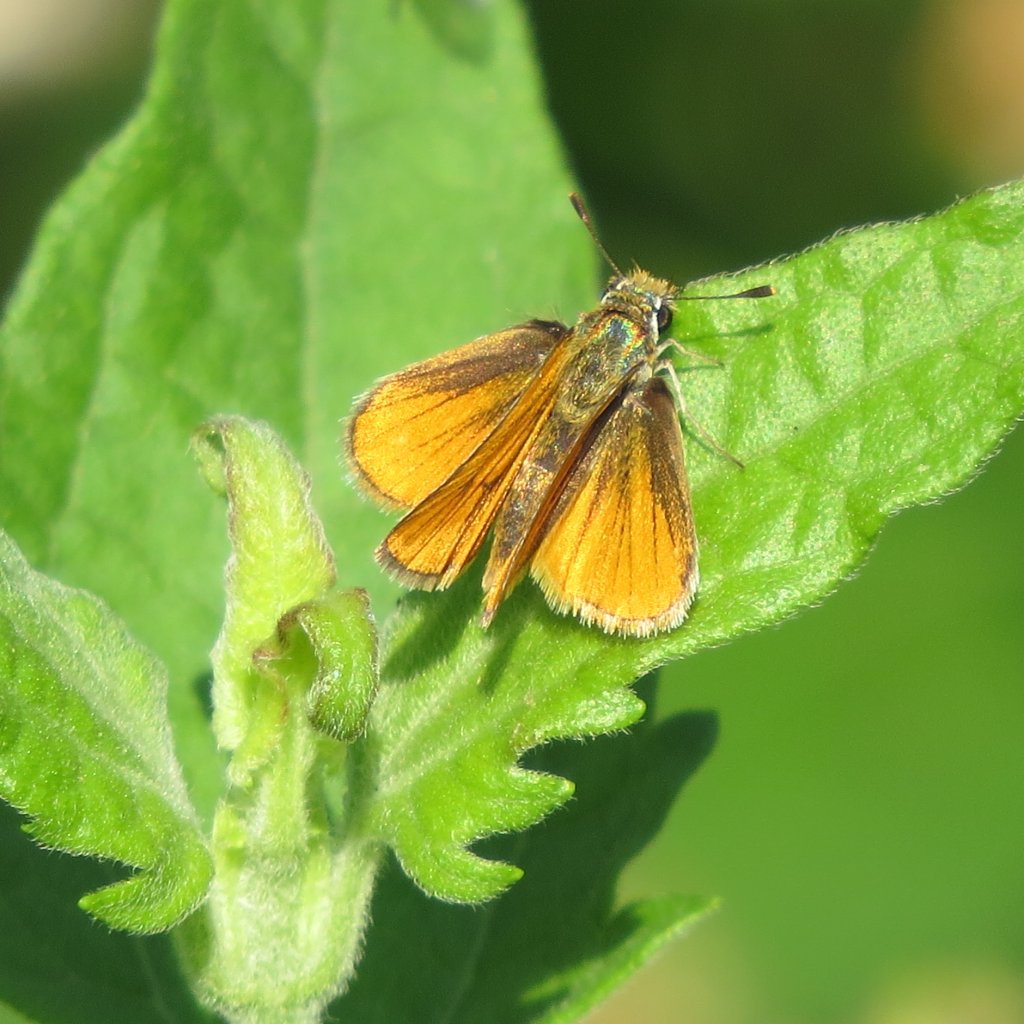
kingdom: Animalia
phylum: Arthropoda
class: Insecta
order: Lepidoptera
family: Hesperiidae
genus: Copaeodes
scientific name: Copaeodes aurantiaca
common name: Orange Skipperling
